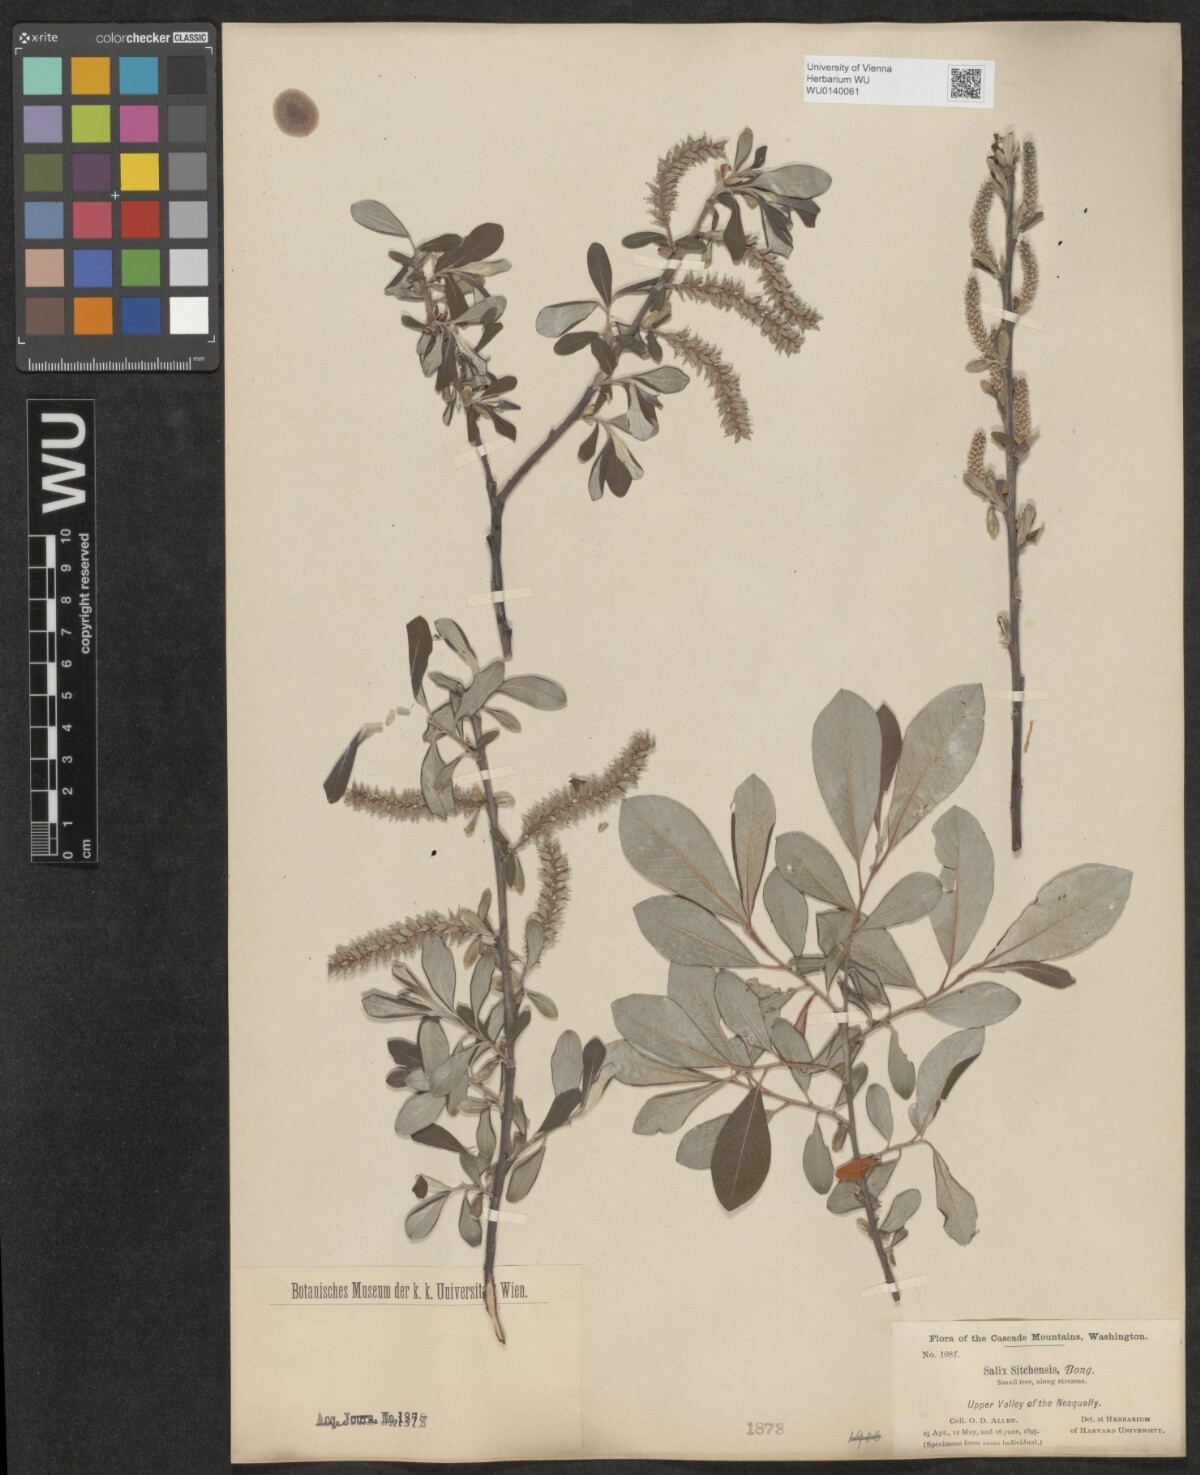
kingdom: Plantae
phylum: Tracheophyta
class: Magnoliopsida
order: Malpighiales
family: Salicaceae
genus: Salix
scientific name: Salix sitchensis
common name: Sitka willow
